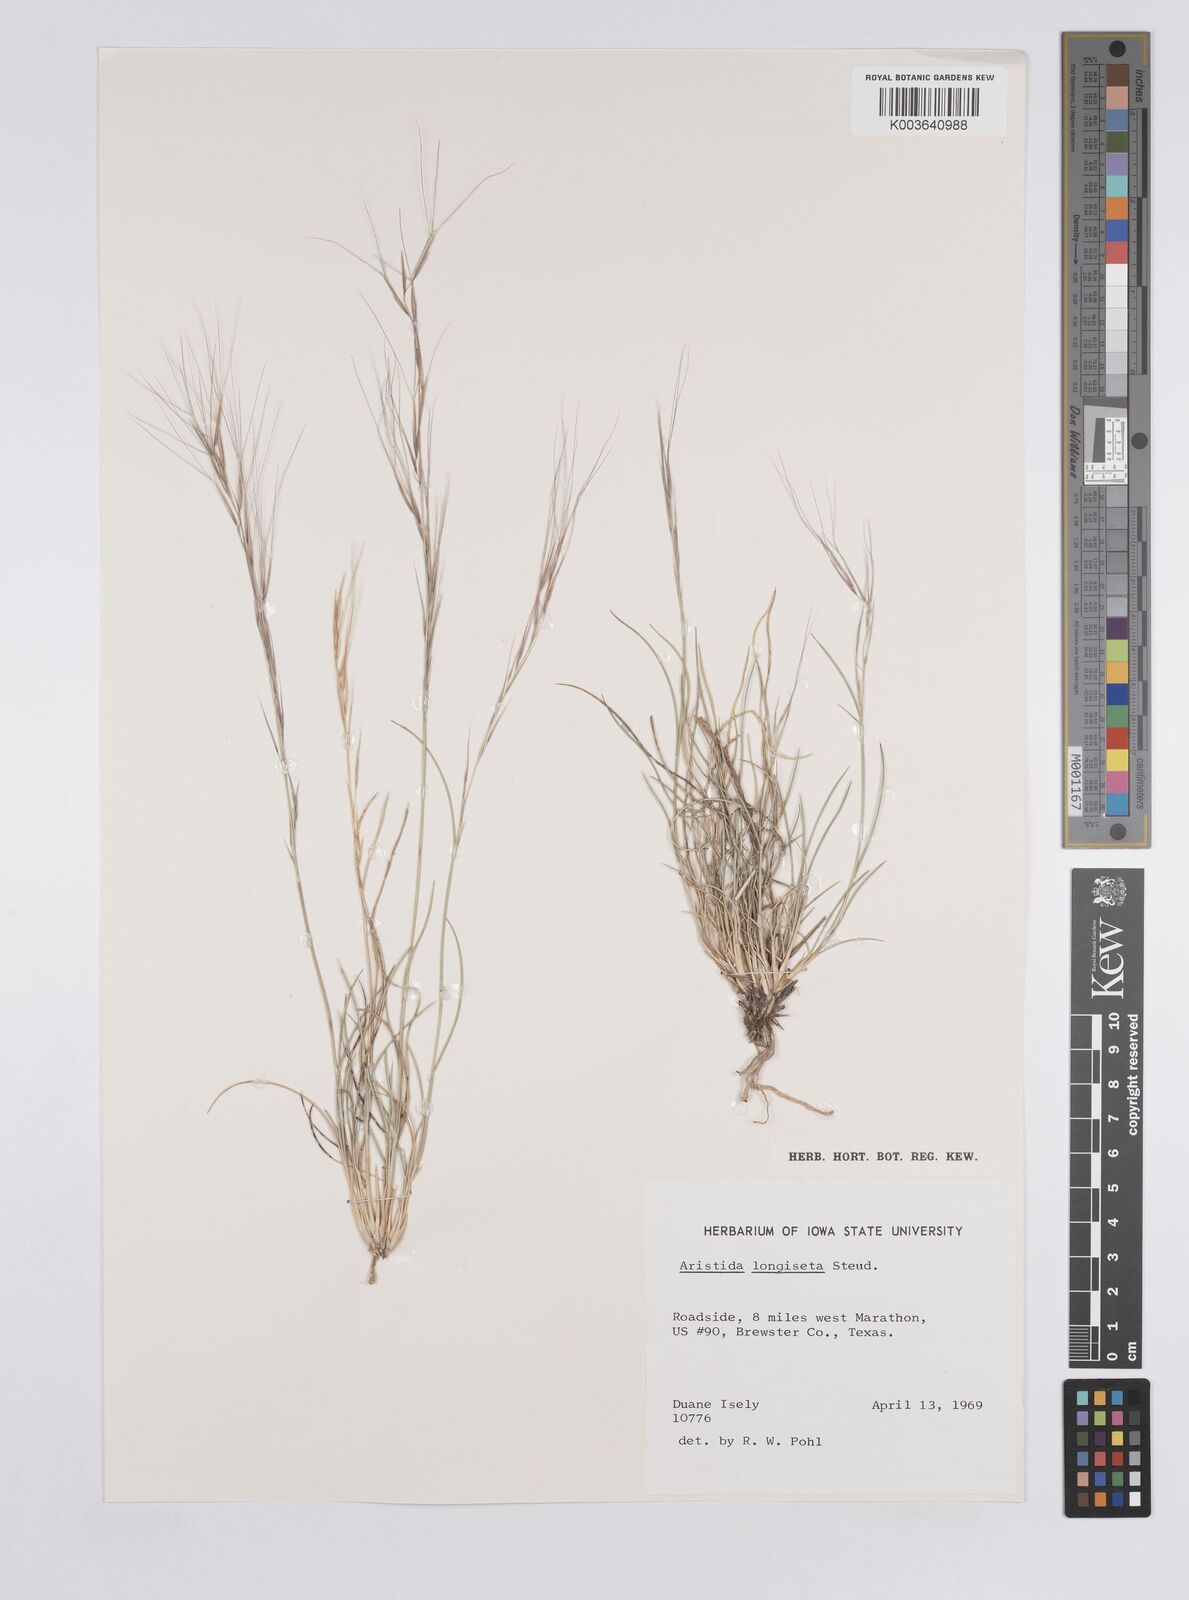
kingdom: Plantae
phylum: Tracheophyta
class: Liliopsida
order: Poales
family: Poaceae
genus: Aristida
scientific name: Aristida purpurea
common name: Purple threeawn
